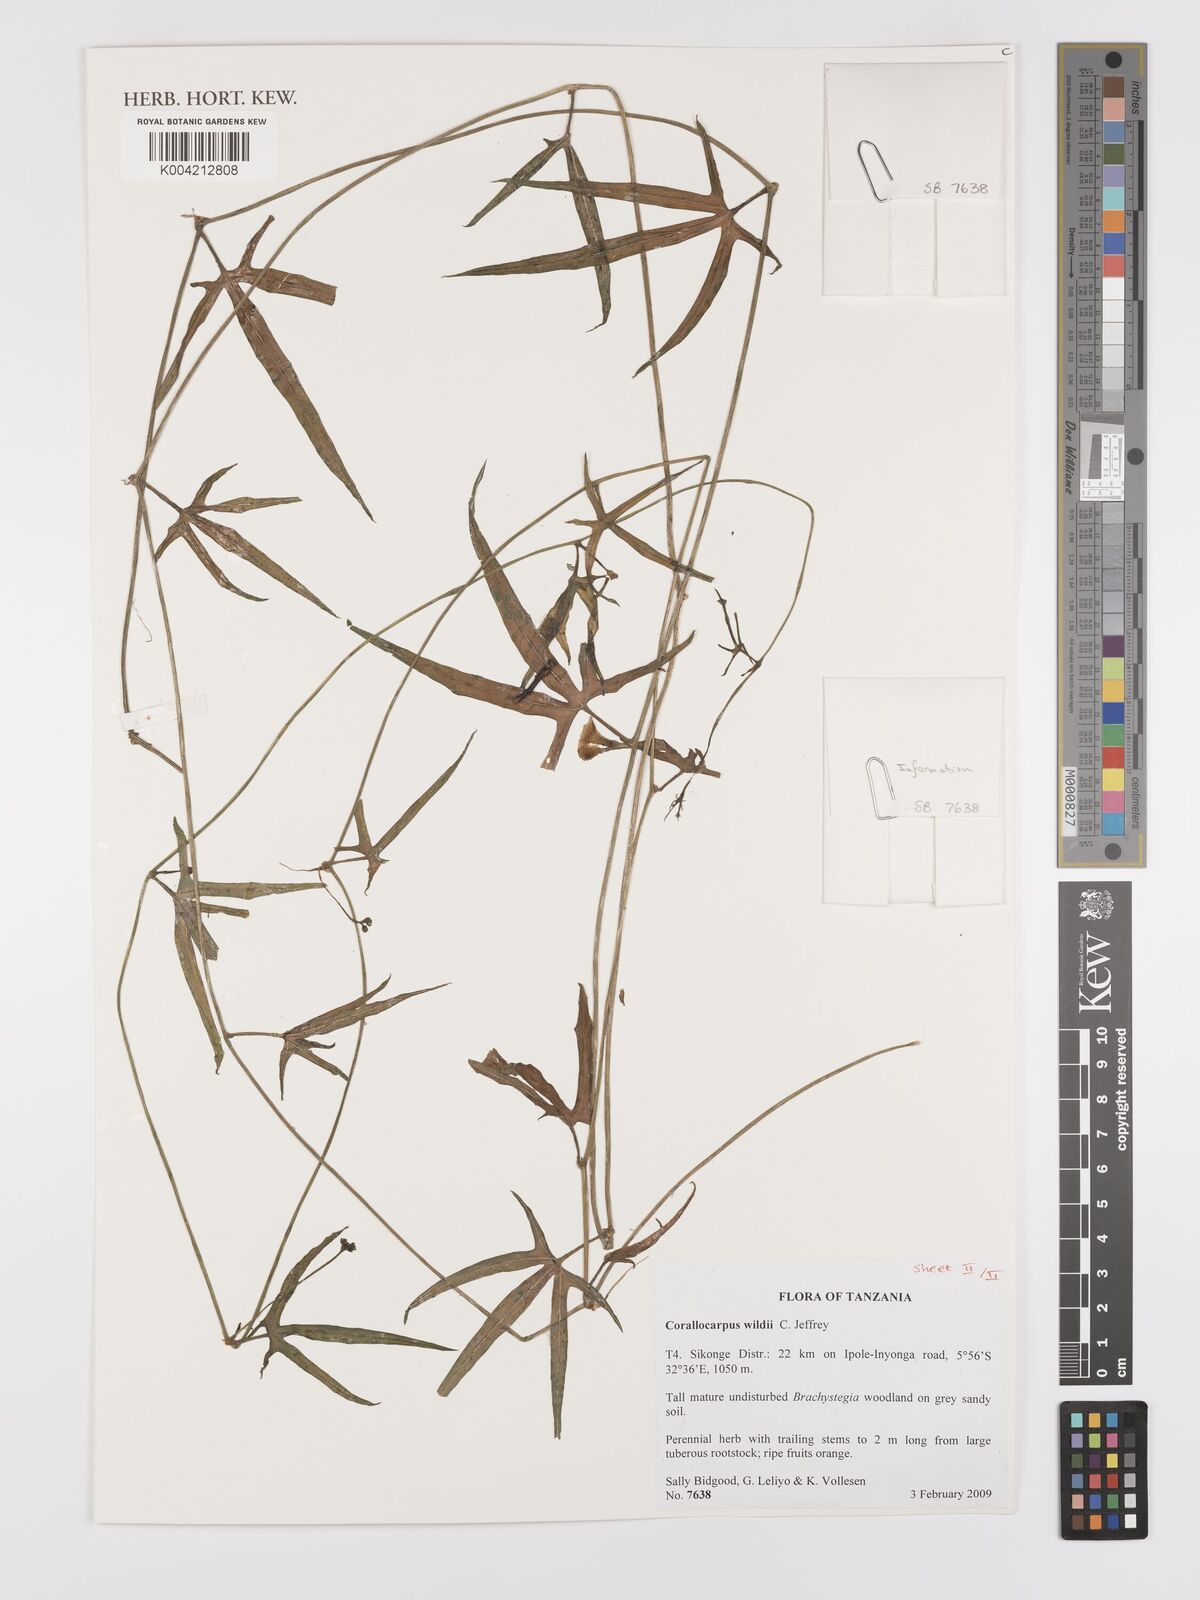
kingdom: Plantae
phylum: Tracheophyta
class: Magnoliopsida
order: Cucurbitales
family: Cucurbitaceae
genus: Corallocarpus
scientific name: Corallocarpus tenuissimus
